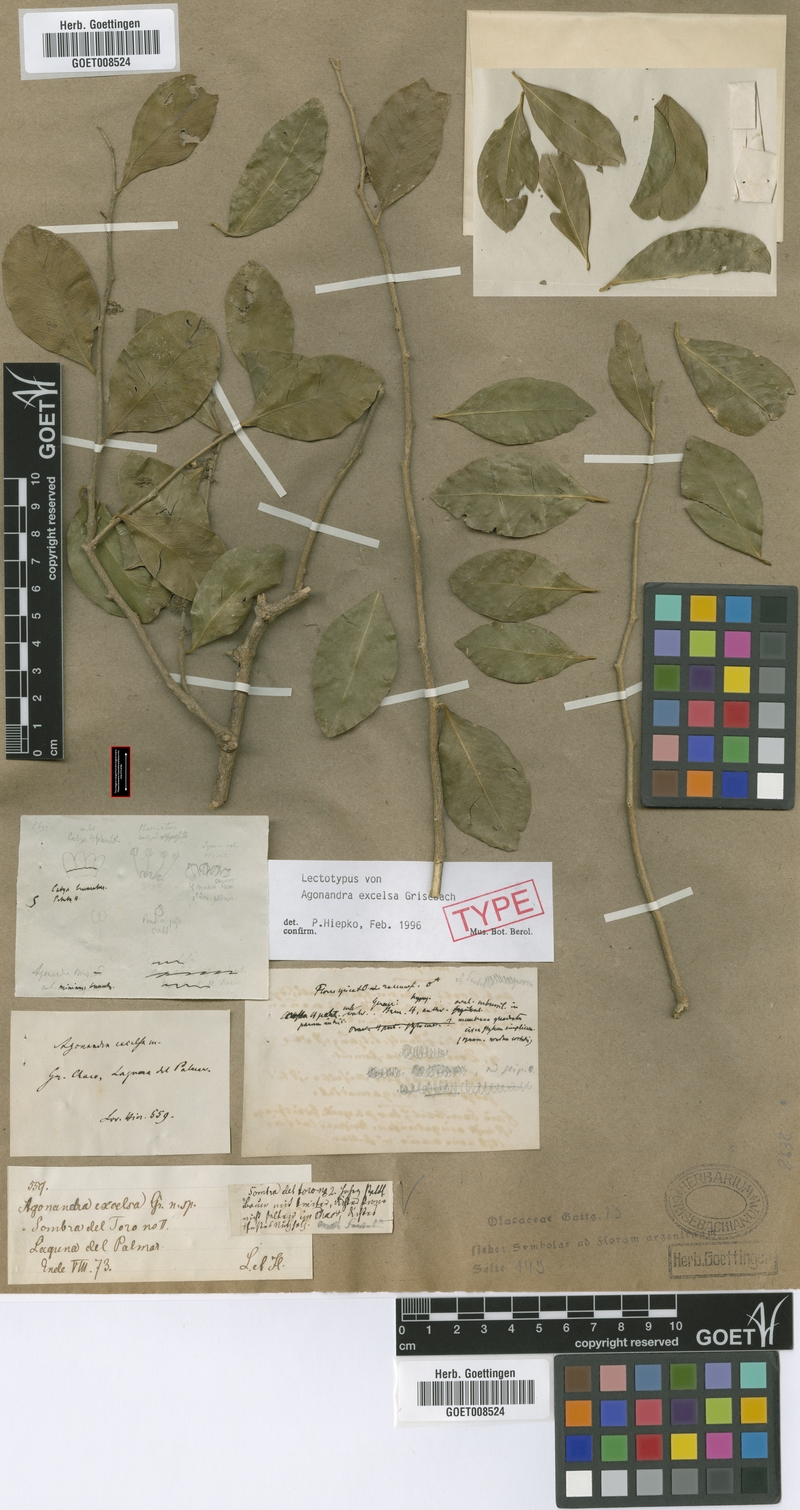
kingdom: Plantae
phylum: Tracheophyta
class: Magnoliopsida
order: Santalales
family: Opiliaceae
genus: Agonandra
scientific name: Agonandra excelsa
